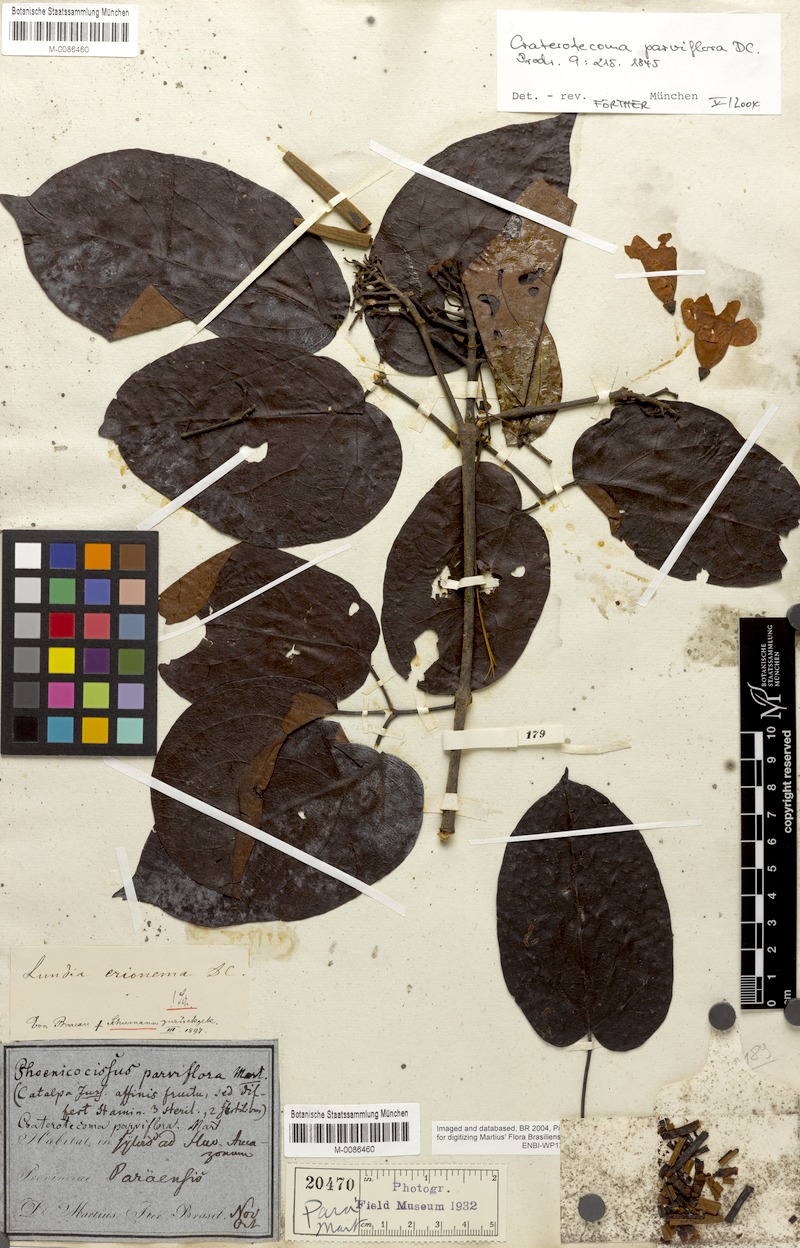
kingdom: Plantae
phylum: Tracheophyta
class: Magnoliopsida
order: Lamiales
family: Bignoniaceae
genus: Lundia
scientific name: Lundia erionema
